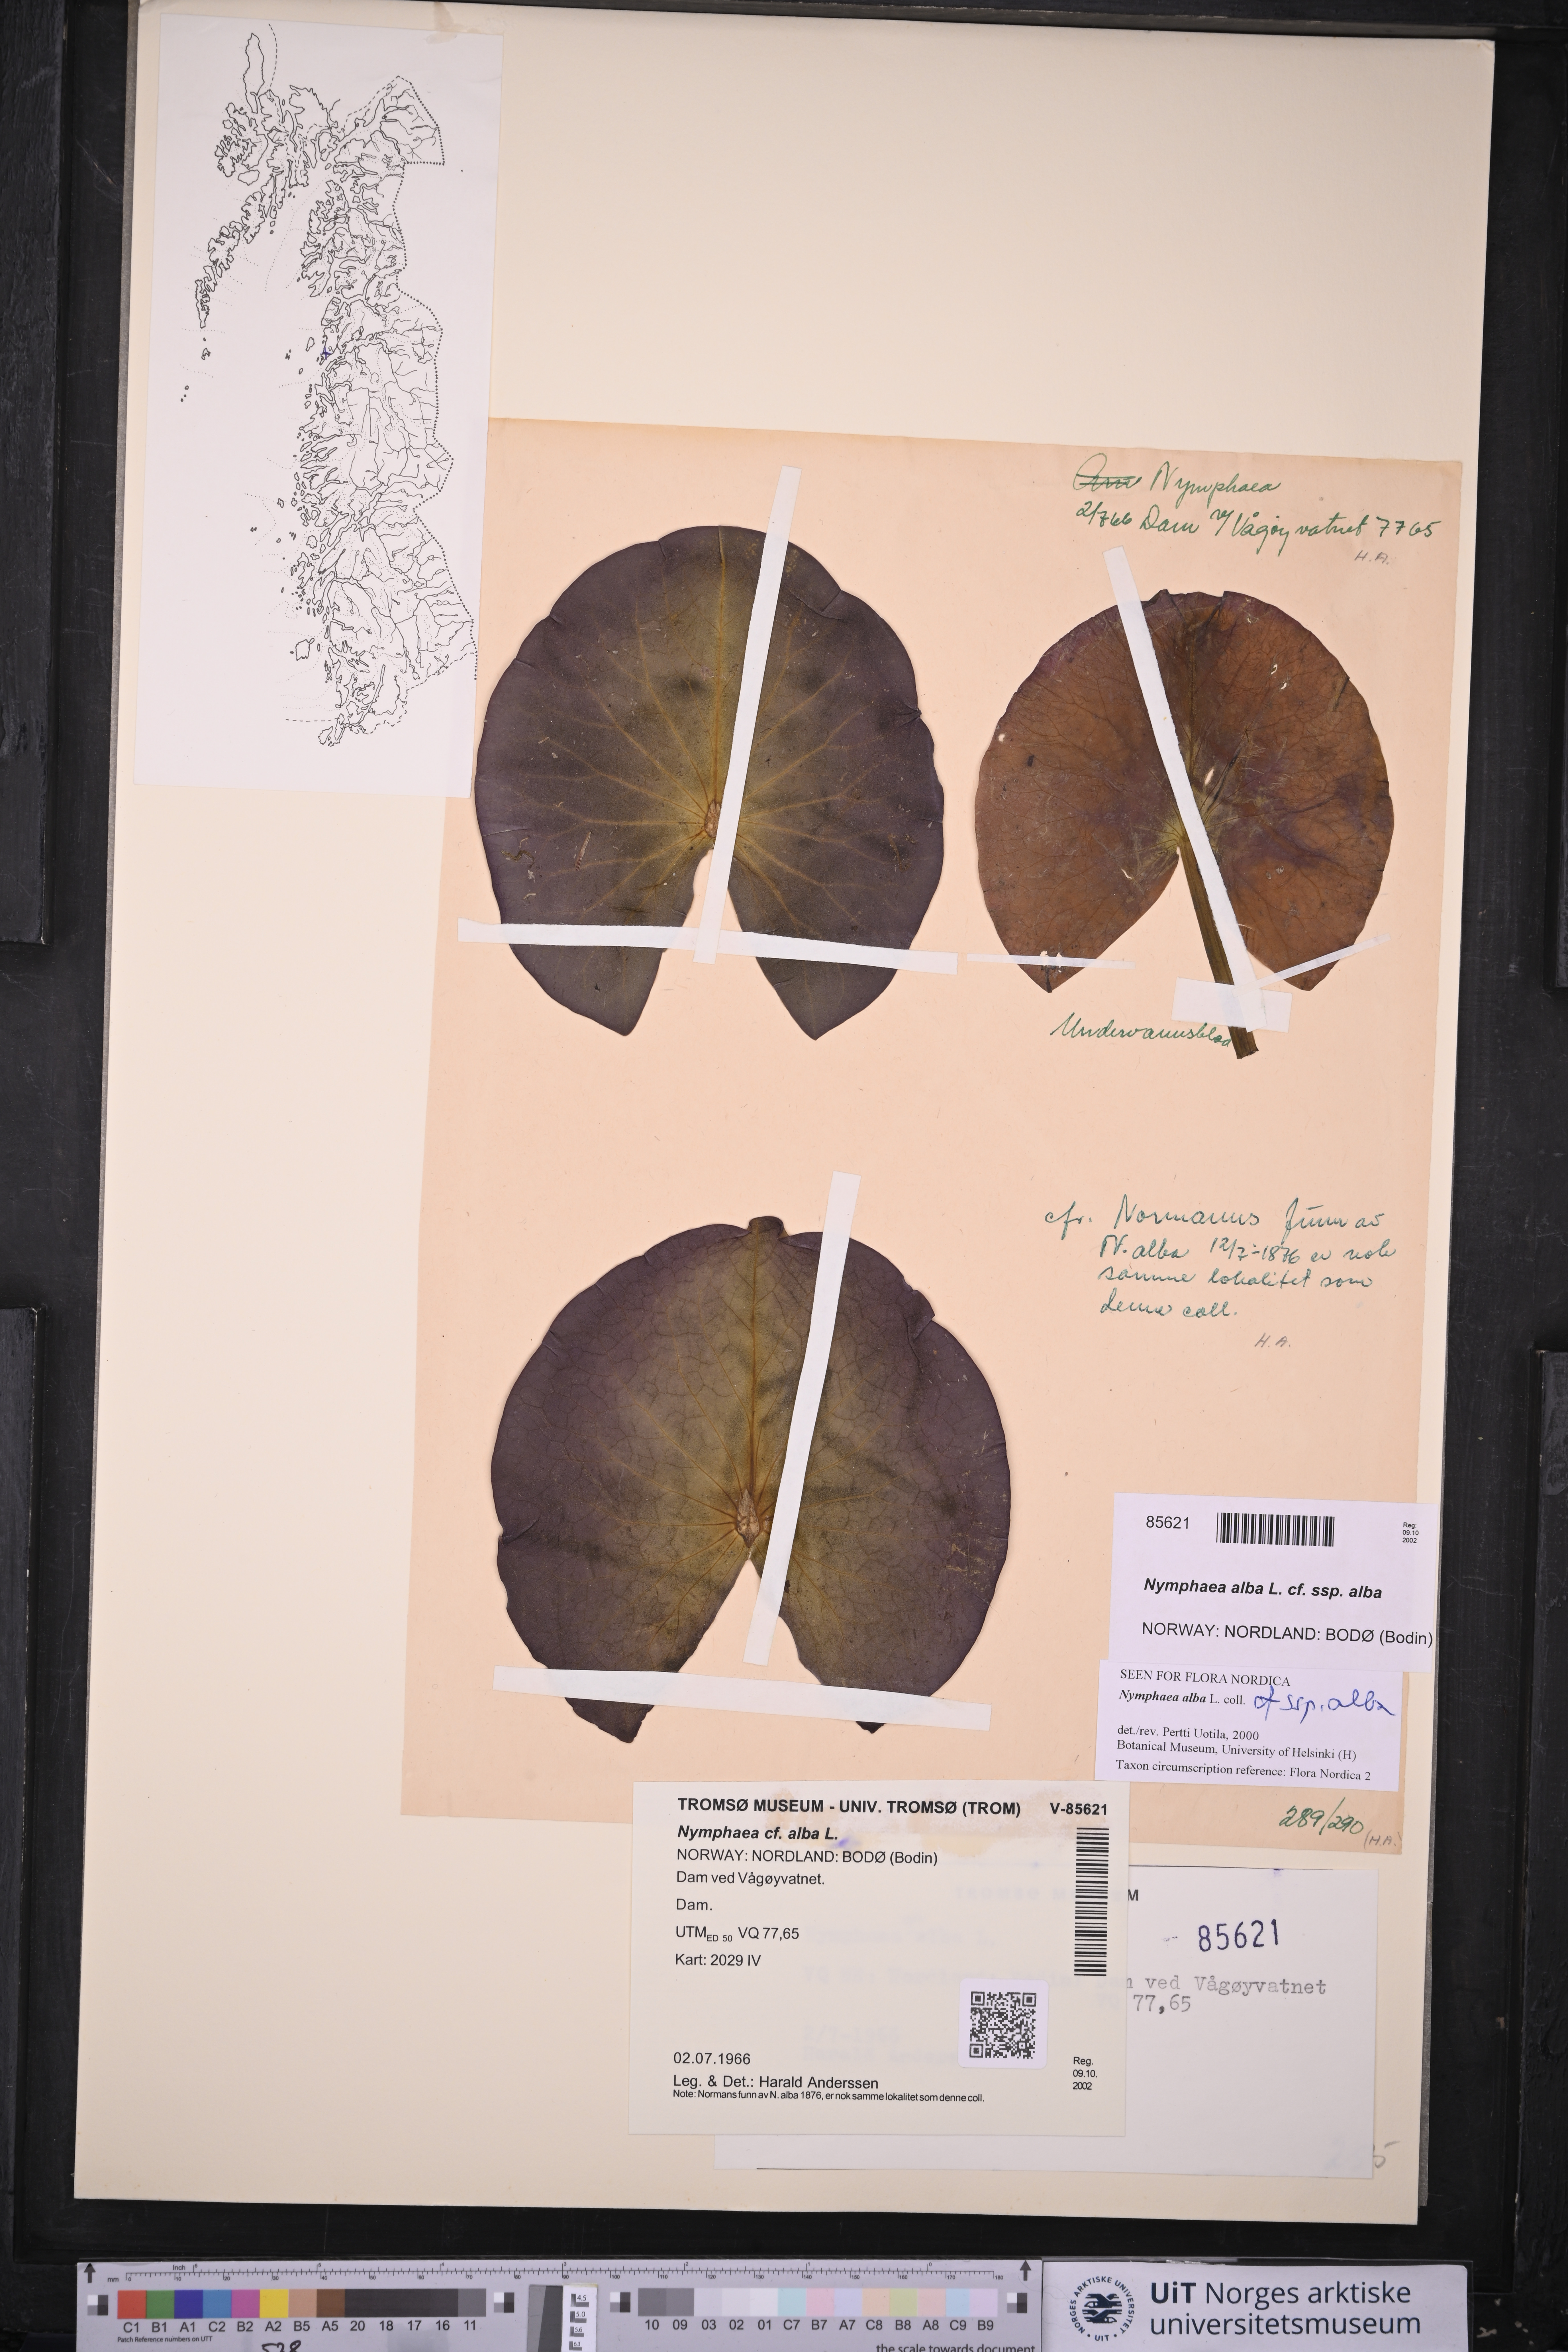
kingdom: Plantae
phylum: Tracheophyta
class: Magnoliopsida
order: Nymphaeales
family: Nymphaeaceae
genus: Nymphaea
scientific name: Nymphaea alba
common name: White water-lily
